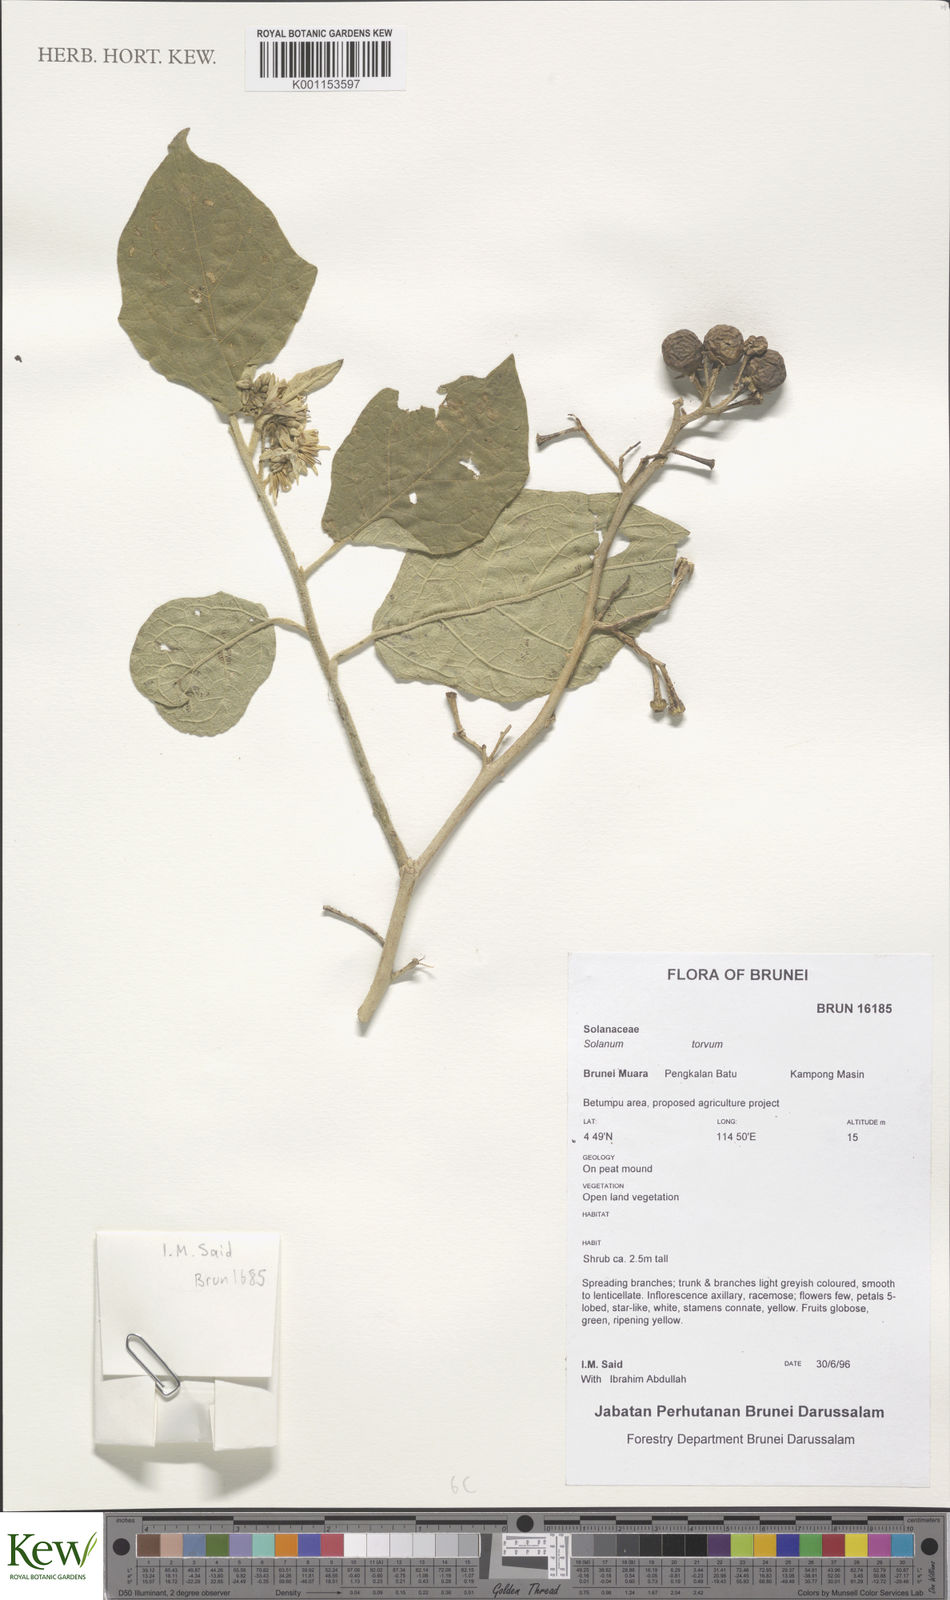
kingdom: Plantae
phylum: Tracheophyta
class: Magnoliopsida
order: Solanales
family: Solanaceae
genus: Solanum
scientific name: Solanum torvum
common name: Turkey berry
